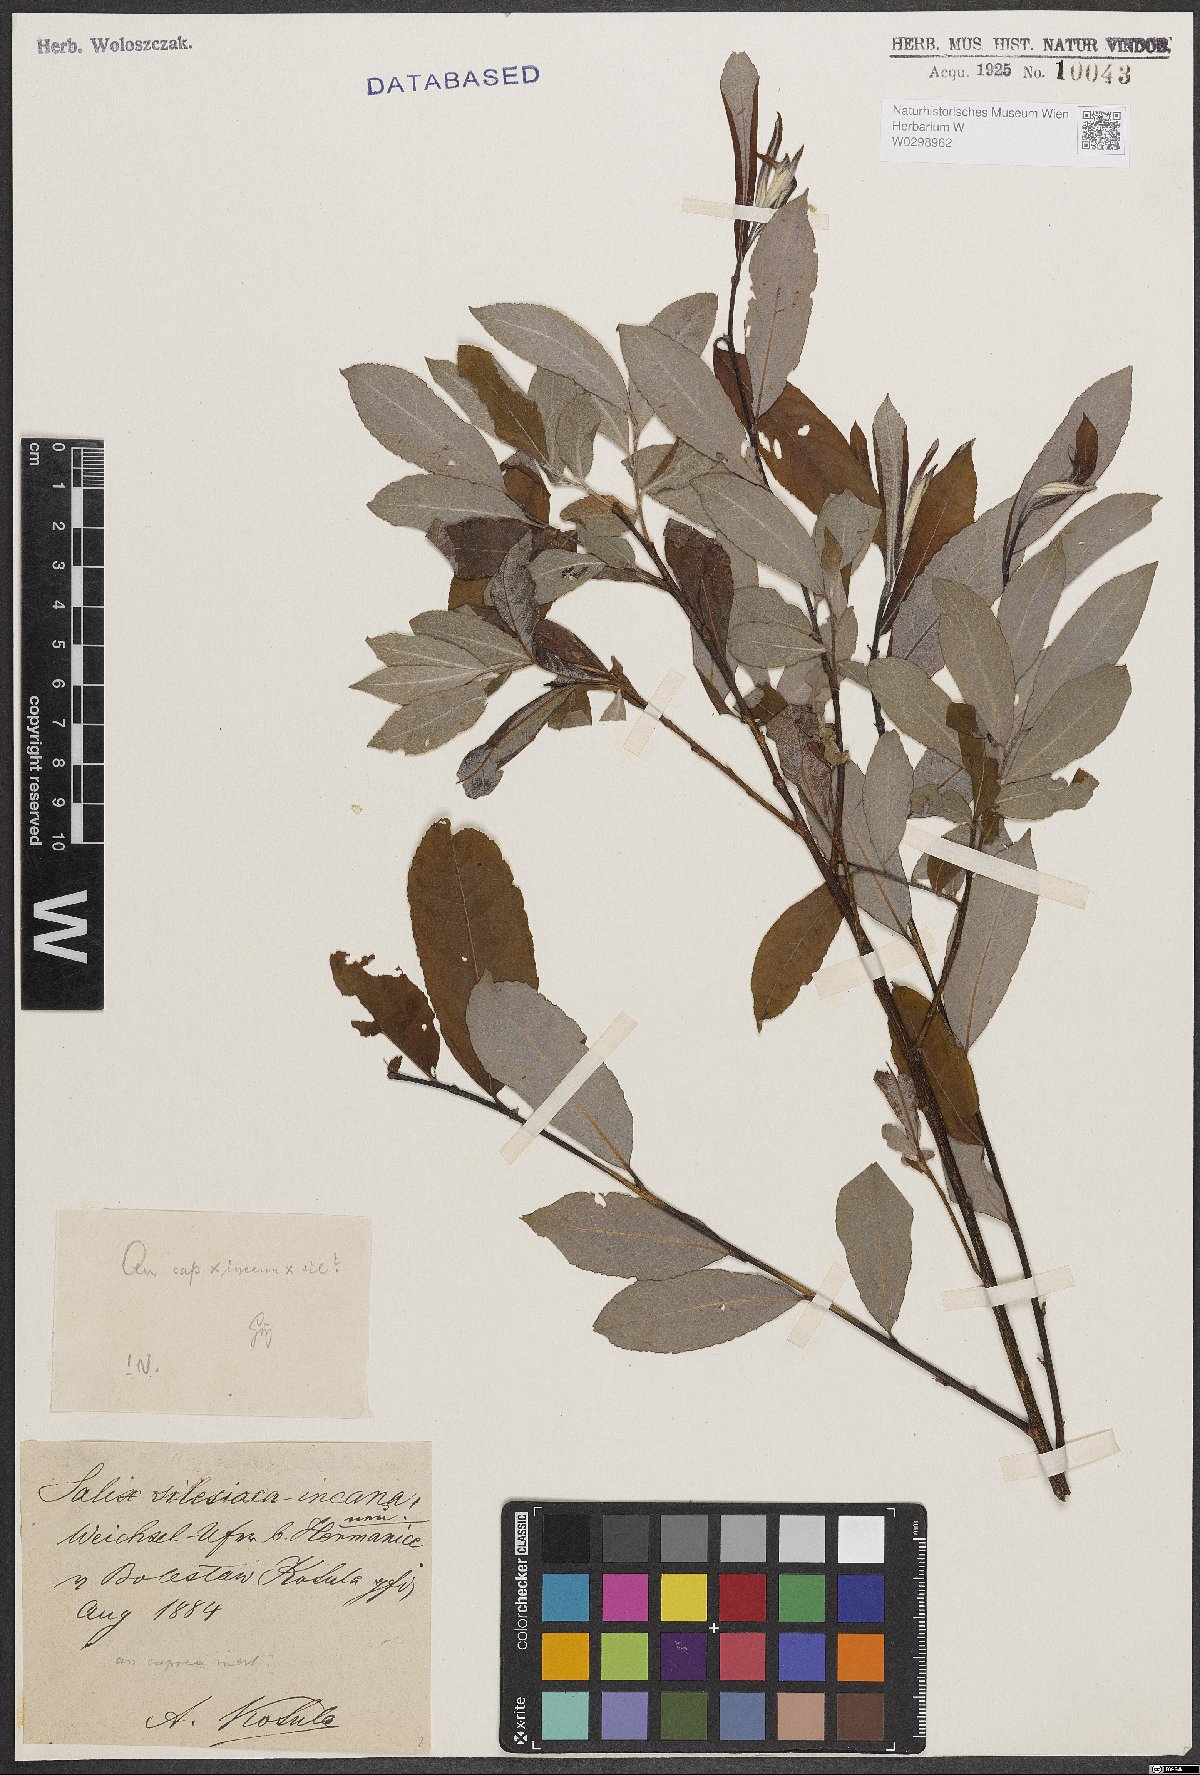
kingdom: Plantae
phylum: Tracheophyta
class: Magnoliopsida
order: Malpighiales
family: Salicaceae
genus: Salix
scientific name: Salix
